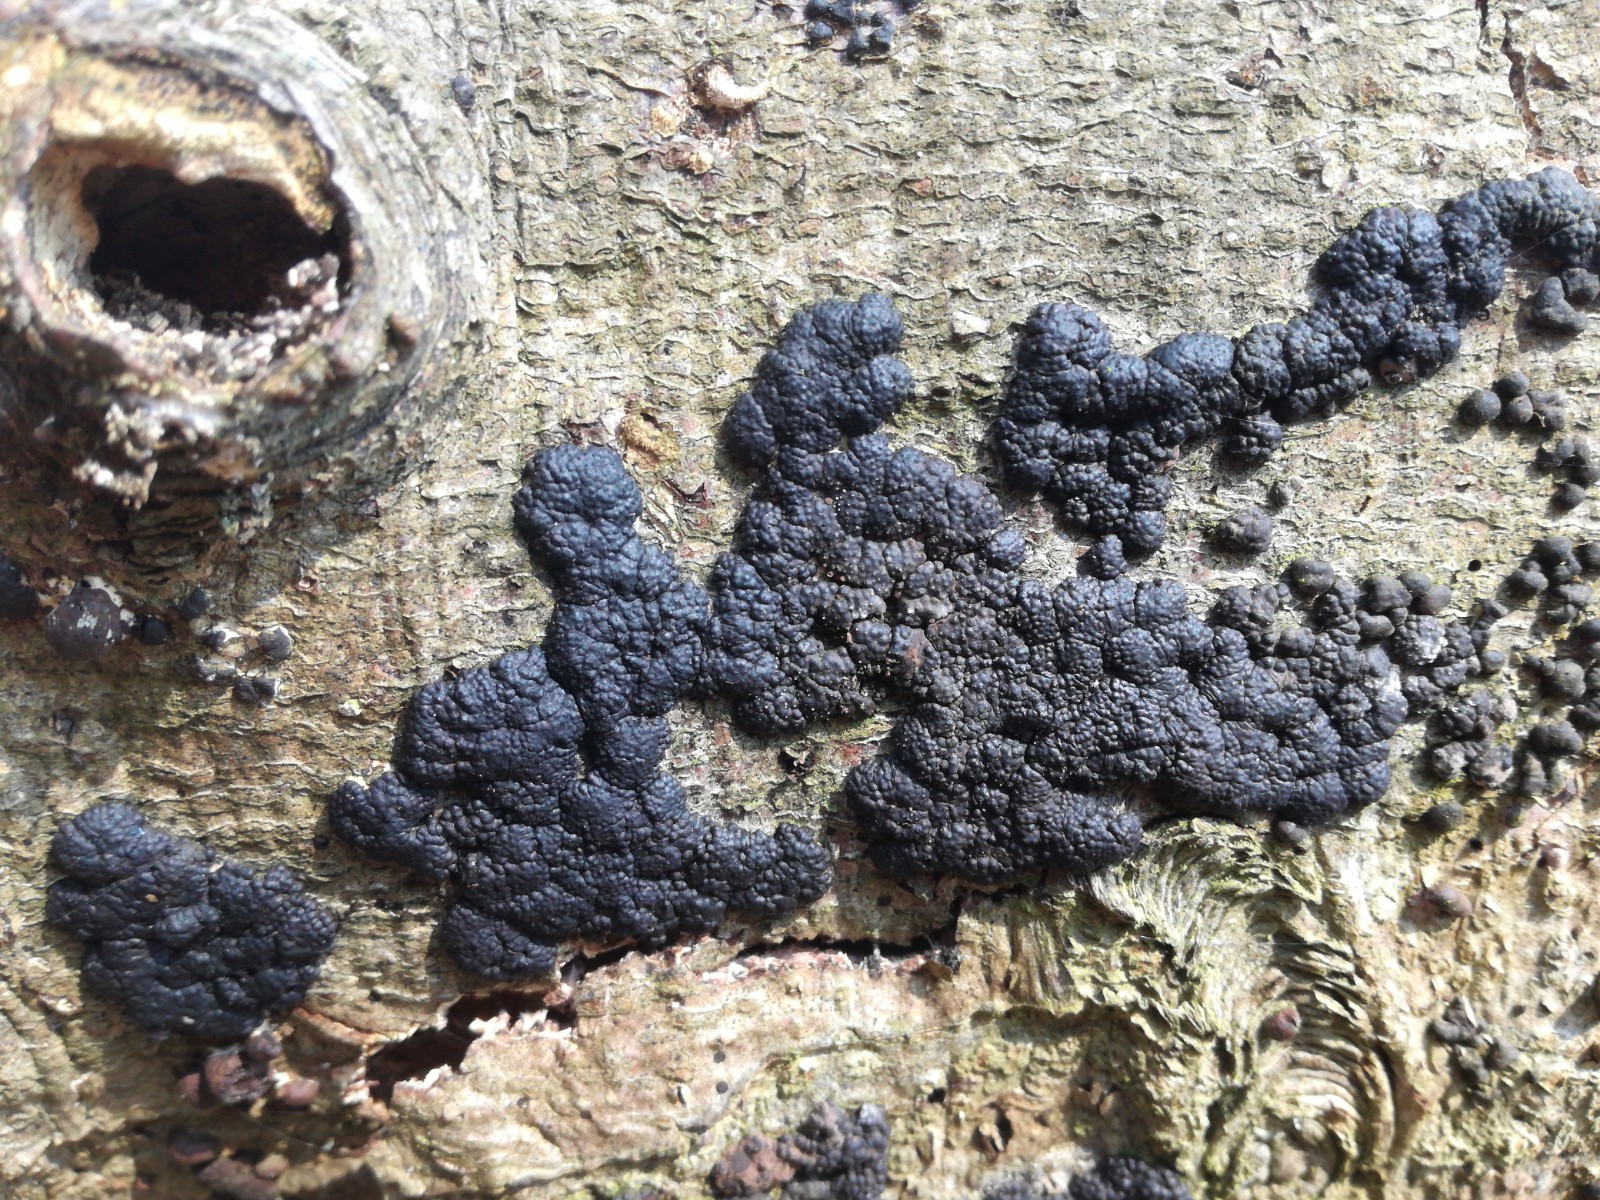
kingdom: Fungi
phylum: Ascomycota
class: Sordariomycetes
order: Xylariales
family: Hypoxylaceae
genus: Jackrogersella
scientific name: Jackrogersella cohaerens
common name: sammenflydende kulbær
